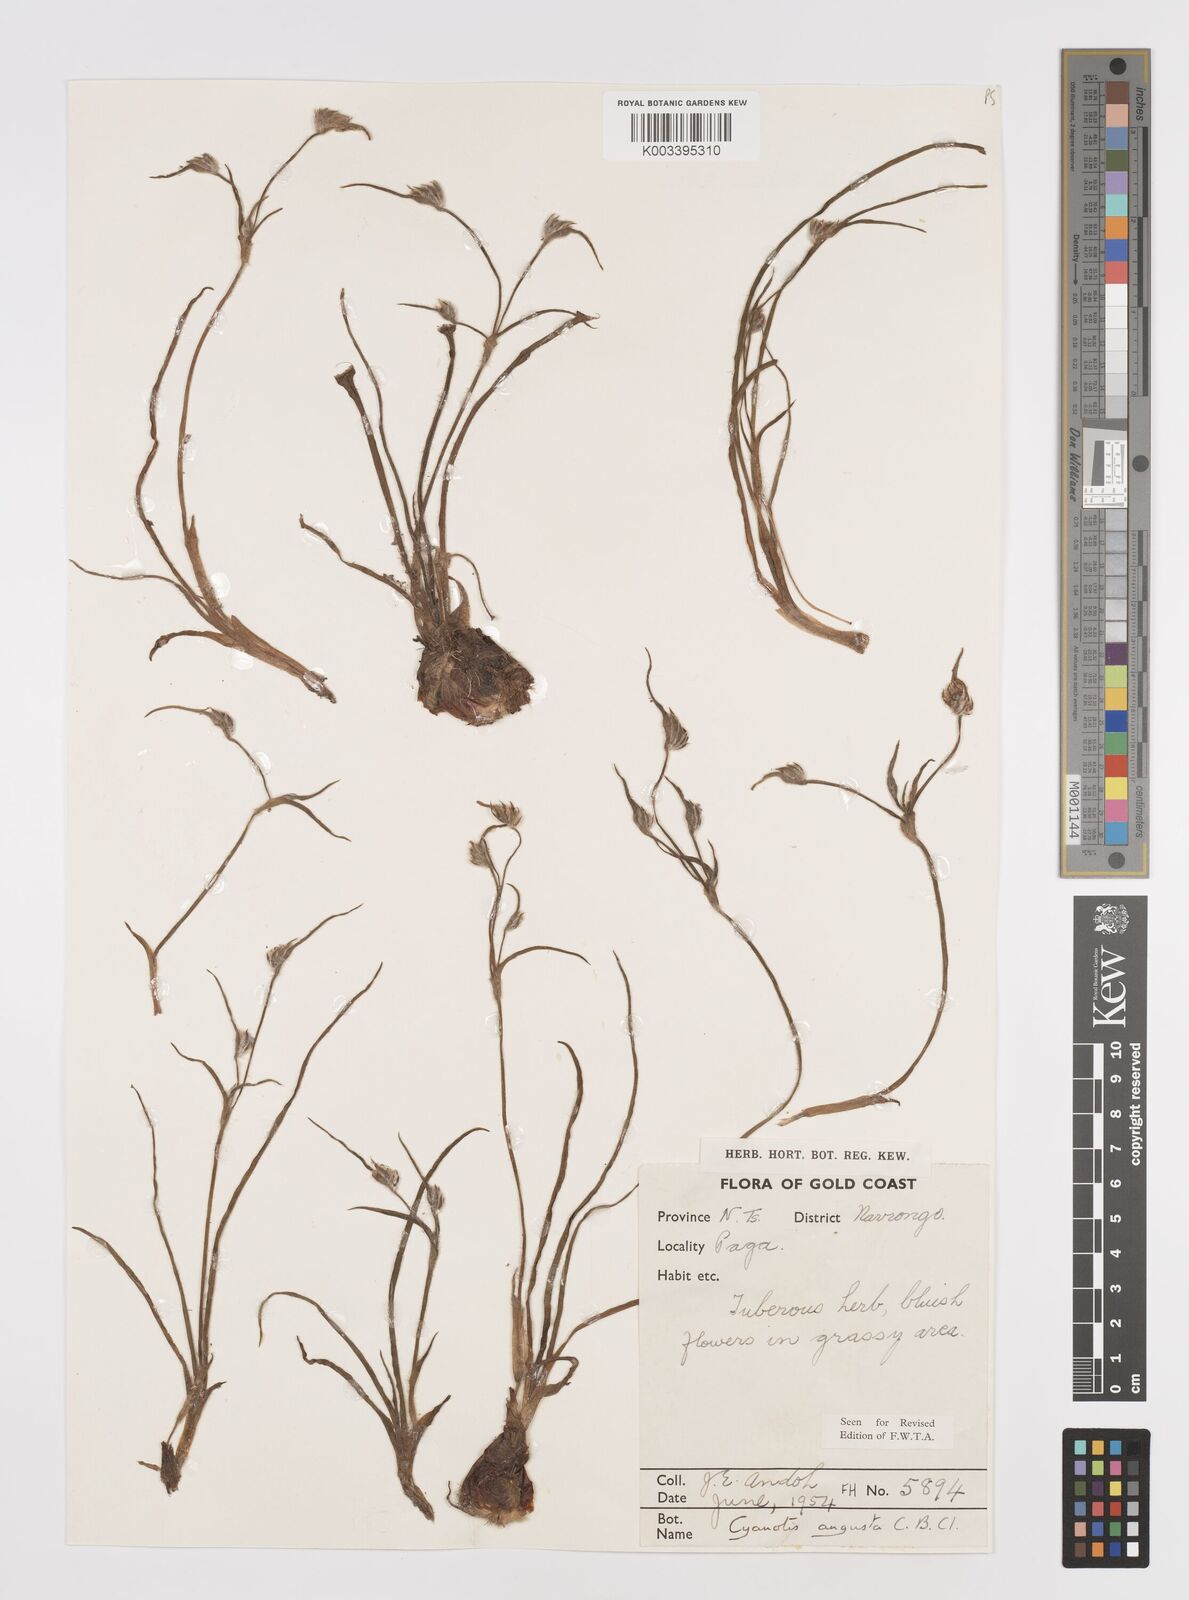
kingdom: Plantae
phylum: Tracheophyta
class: Liliopsida
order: Commelinales
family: Commelinaceae
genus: Cyanotis
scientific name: Cyanotis angusta
